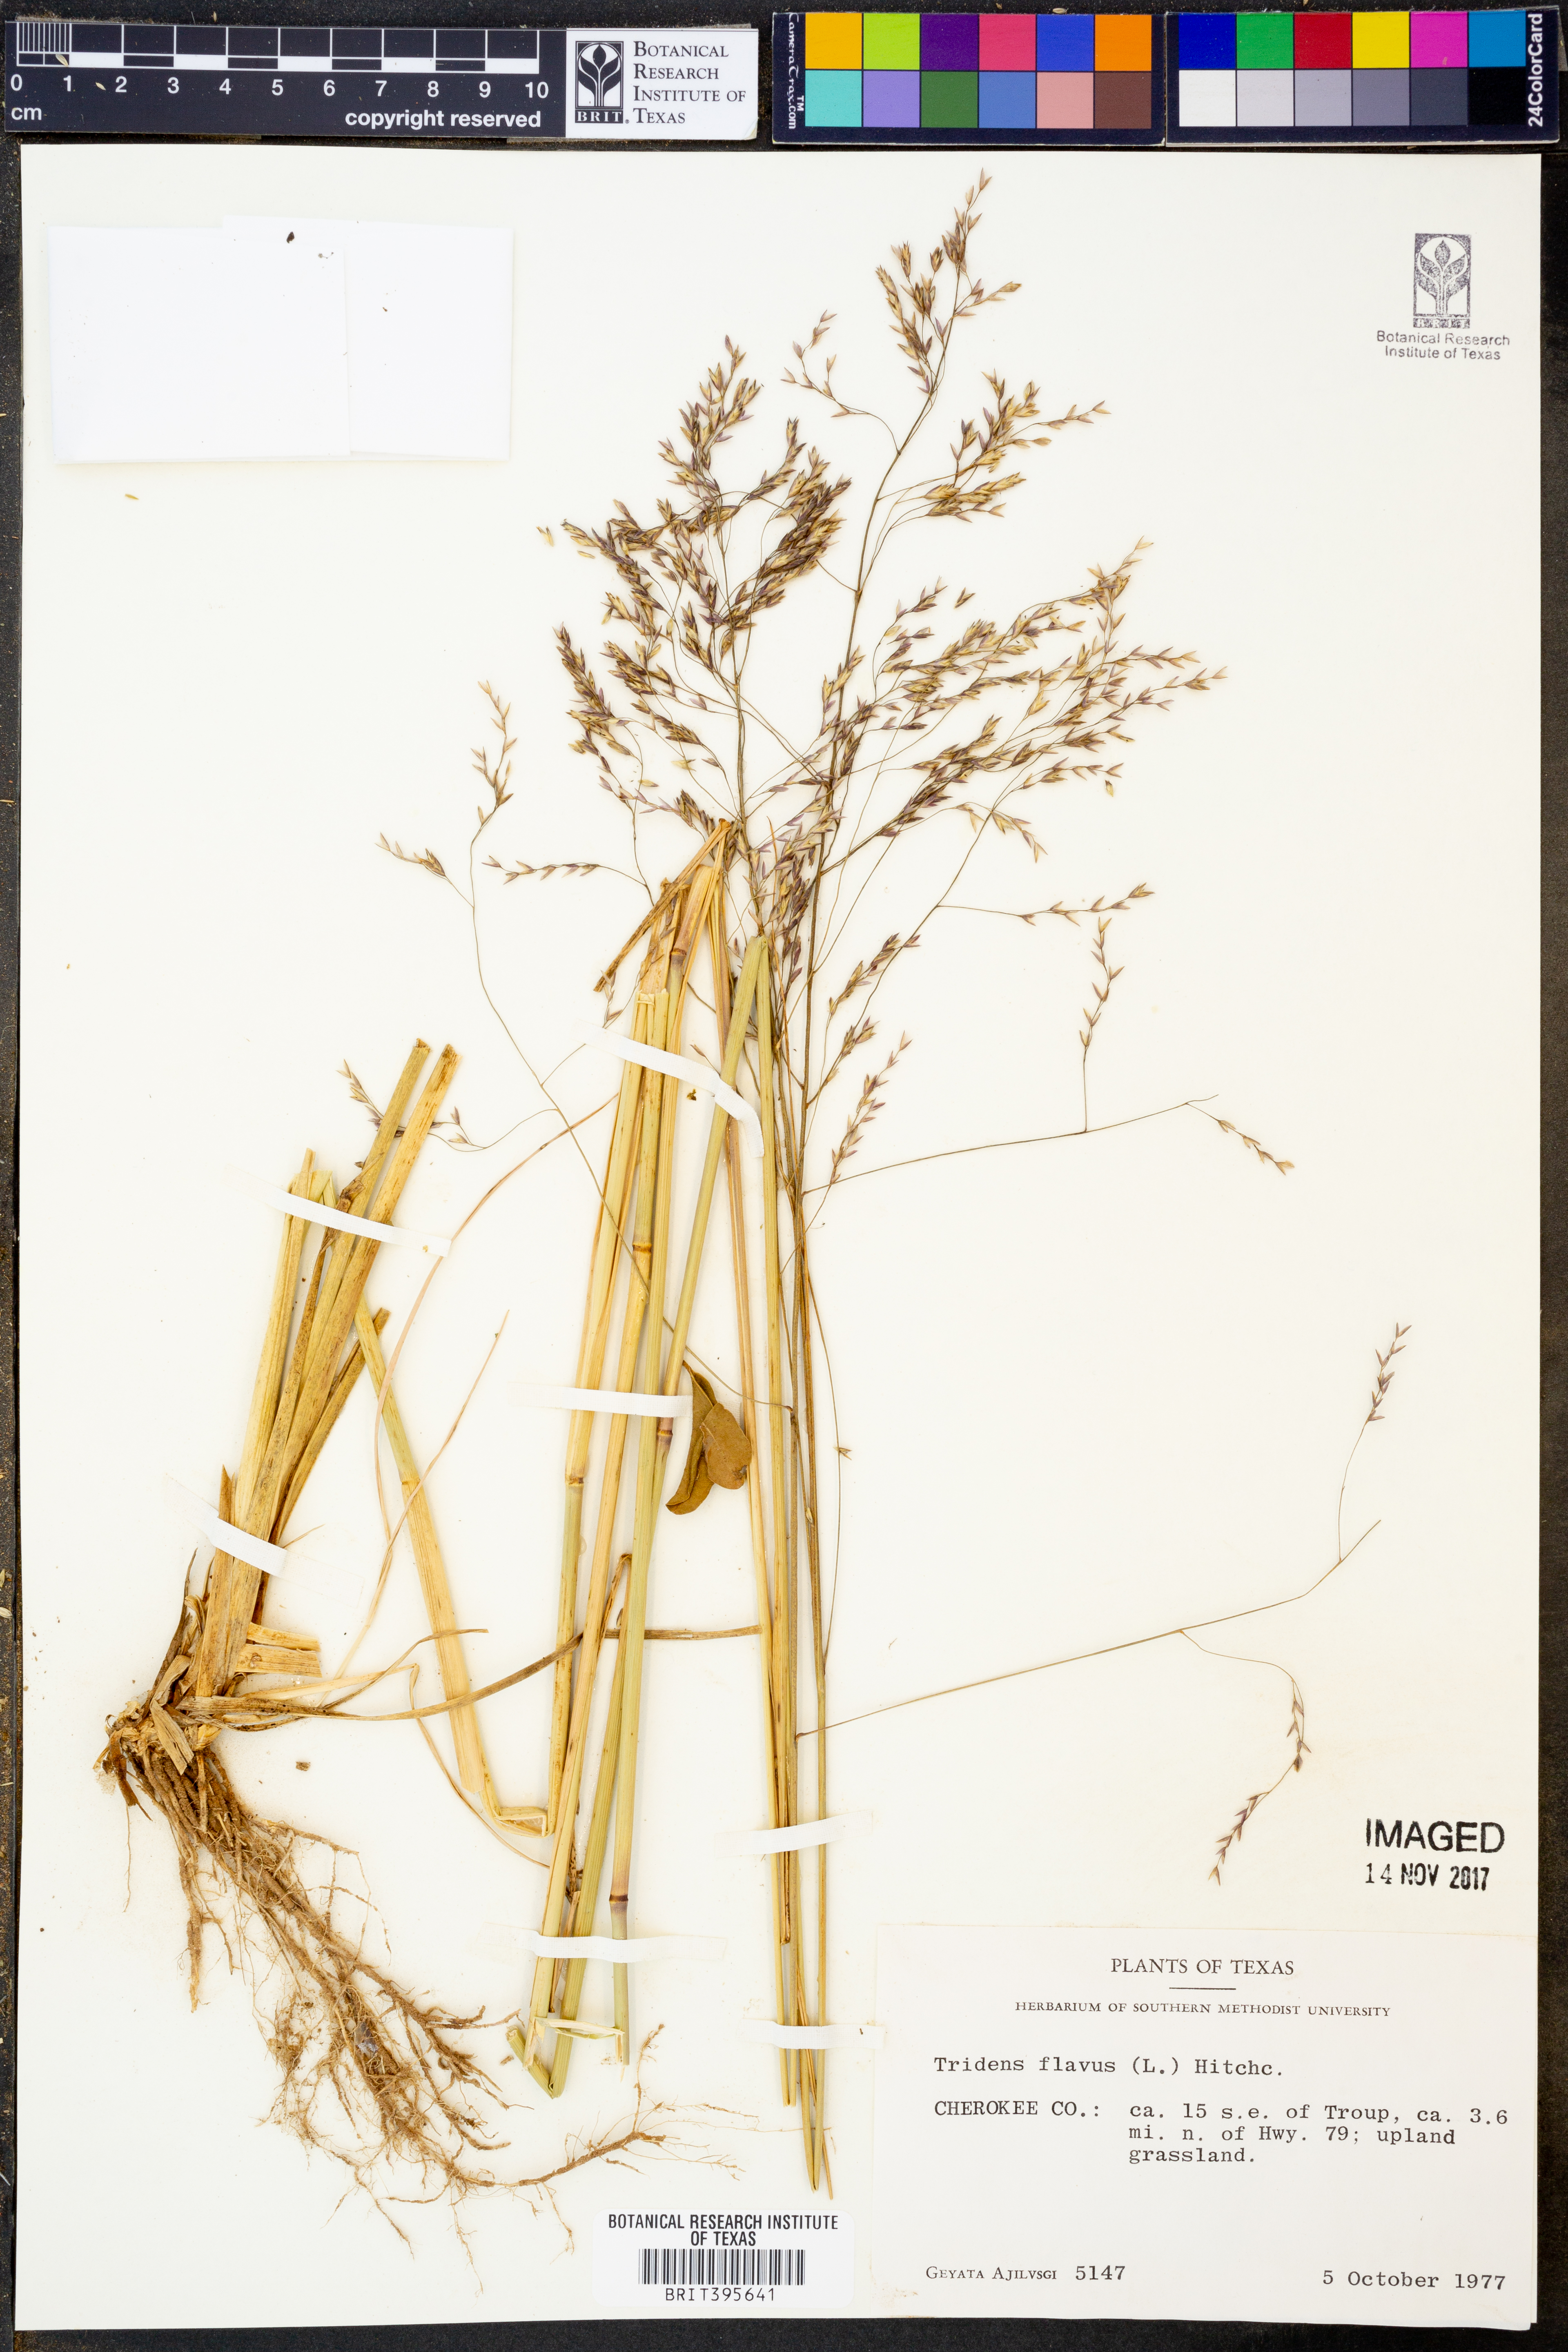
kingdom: Plantae
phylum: Tracheophyta
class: Liliopsida
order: Poales
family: Poaceae
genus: Tridens
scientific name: Tridens flavus
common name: Purpletop
